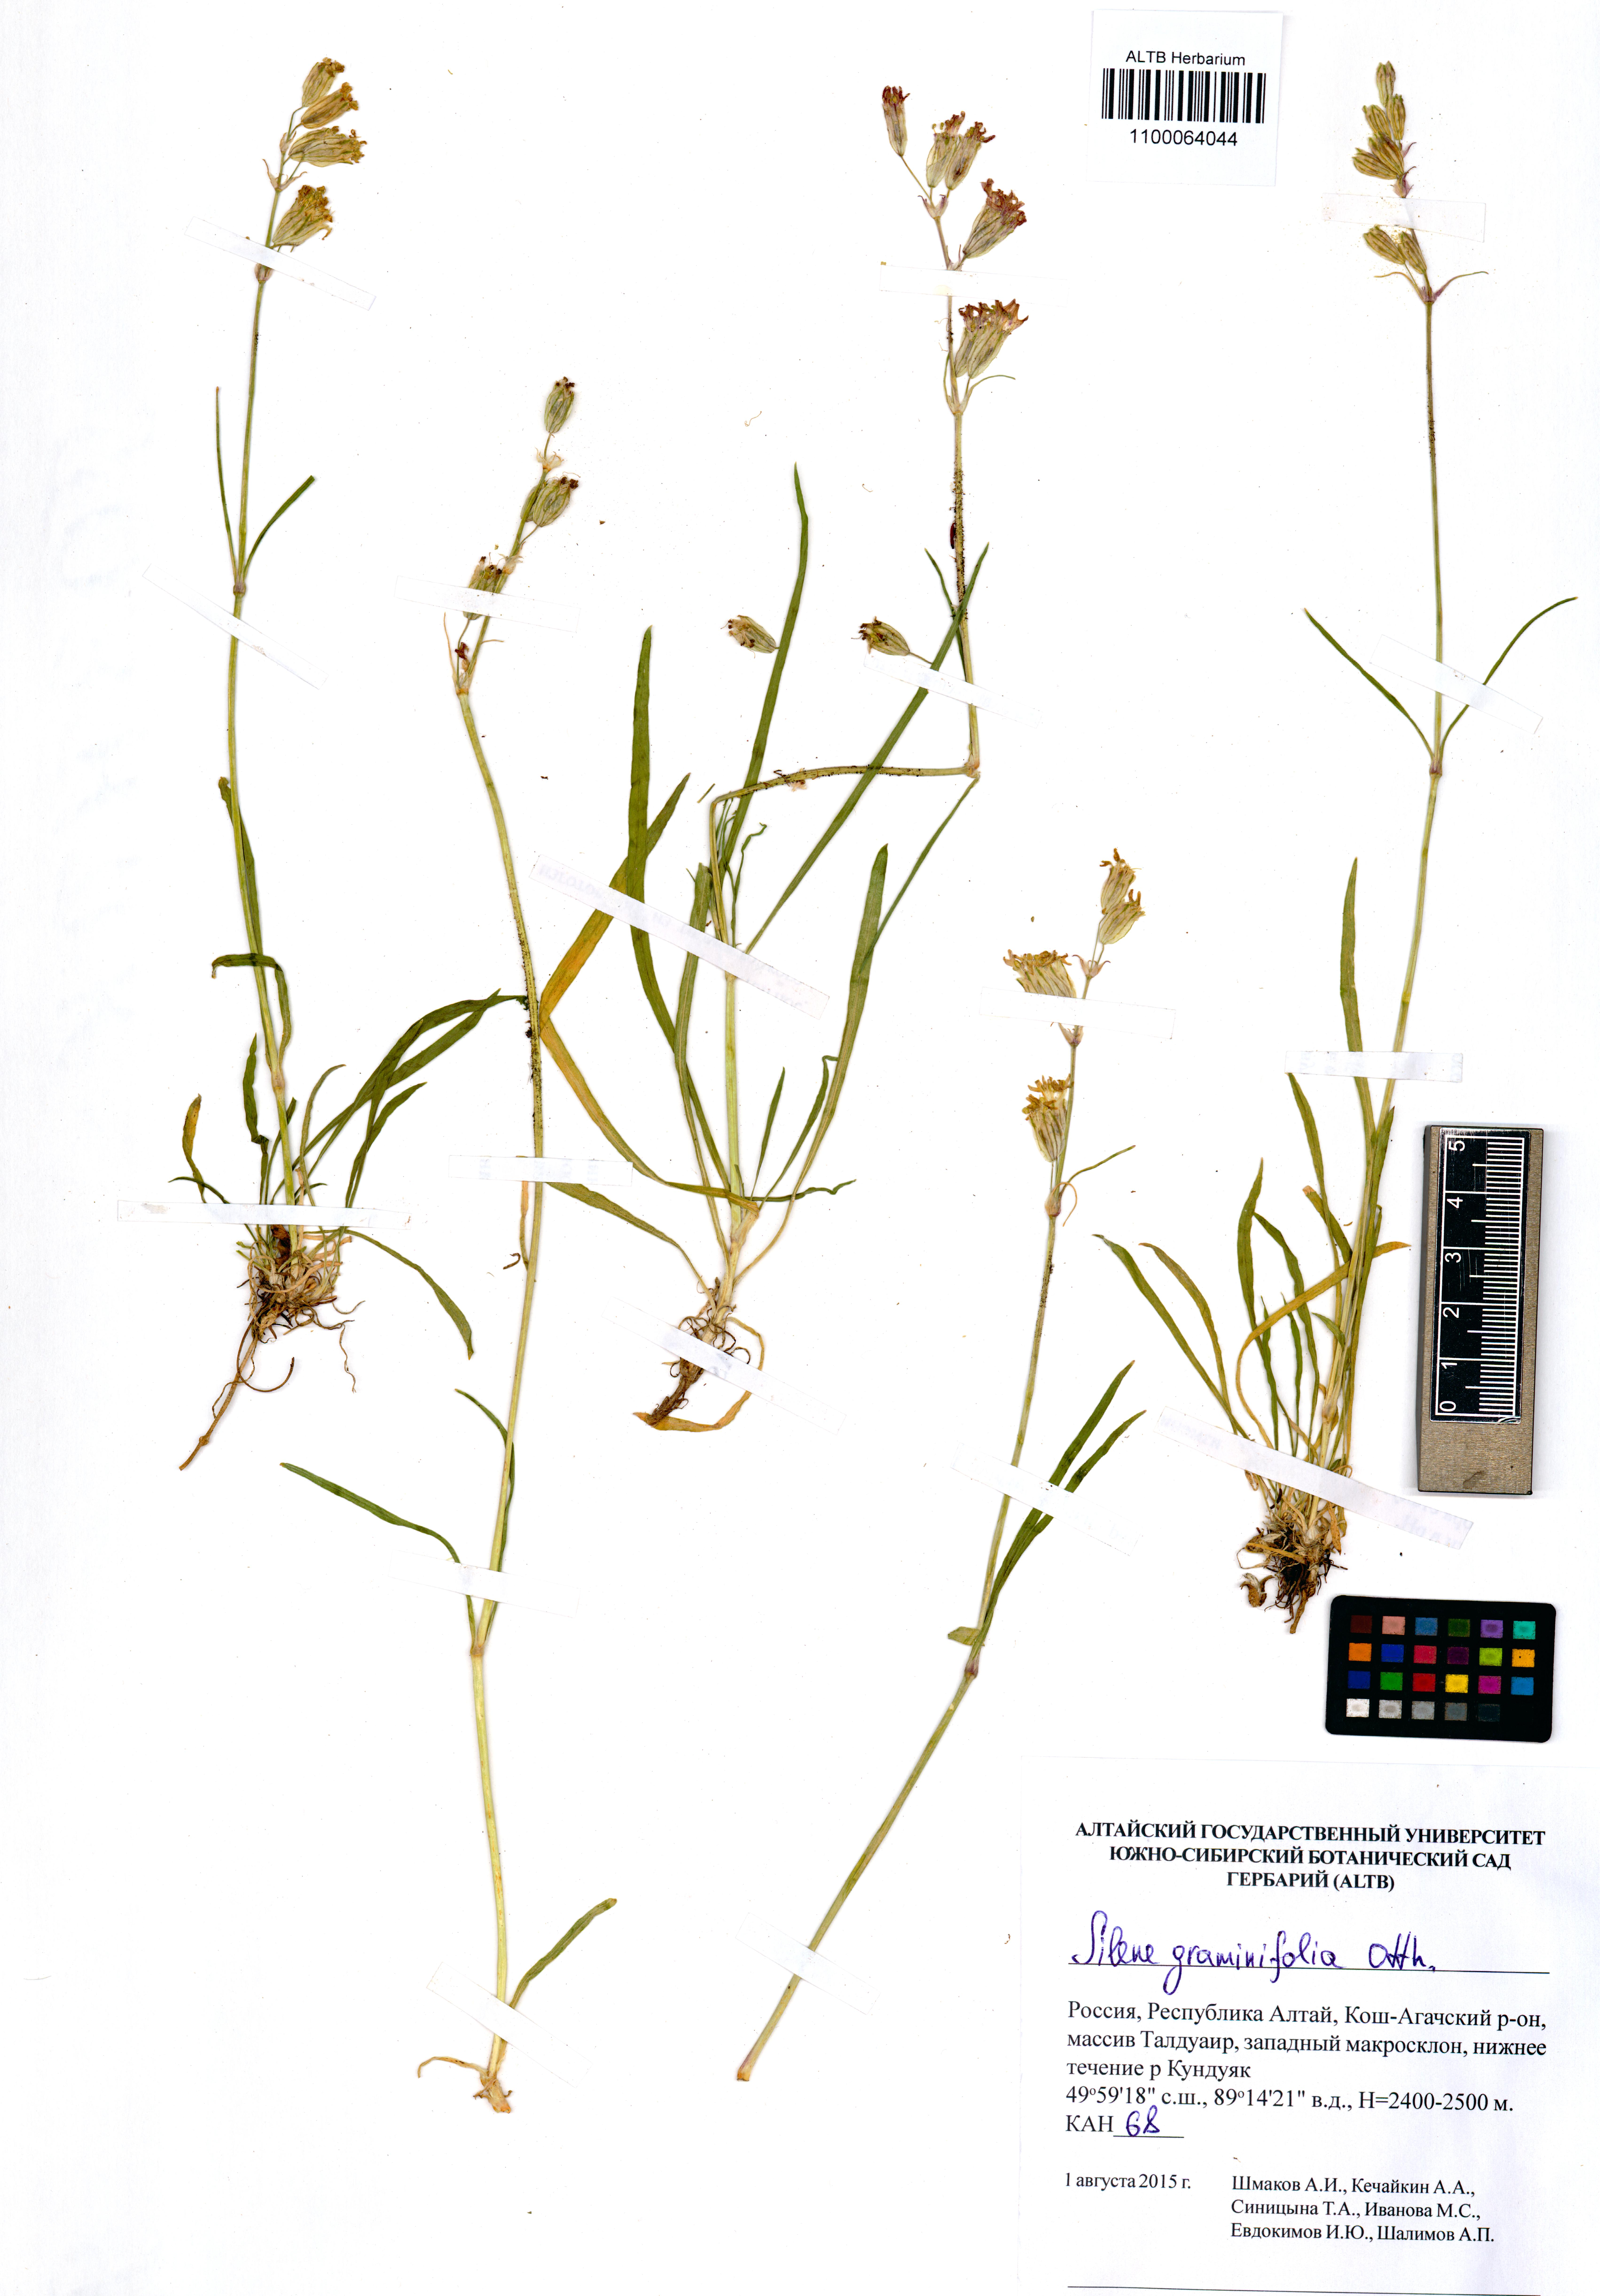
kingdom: Plantae
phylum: Tracheophyta
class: Magnoliopsida
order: Caryophyllales
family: Caryophyllaceae
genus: Silene
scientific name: Silene graminifolia
